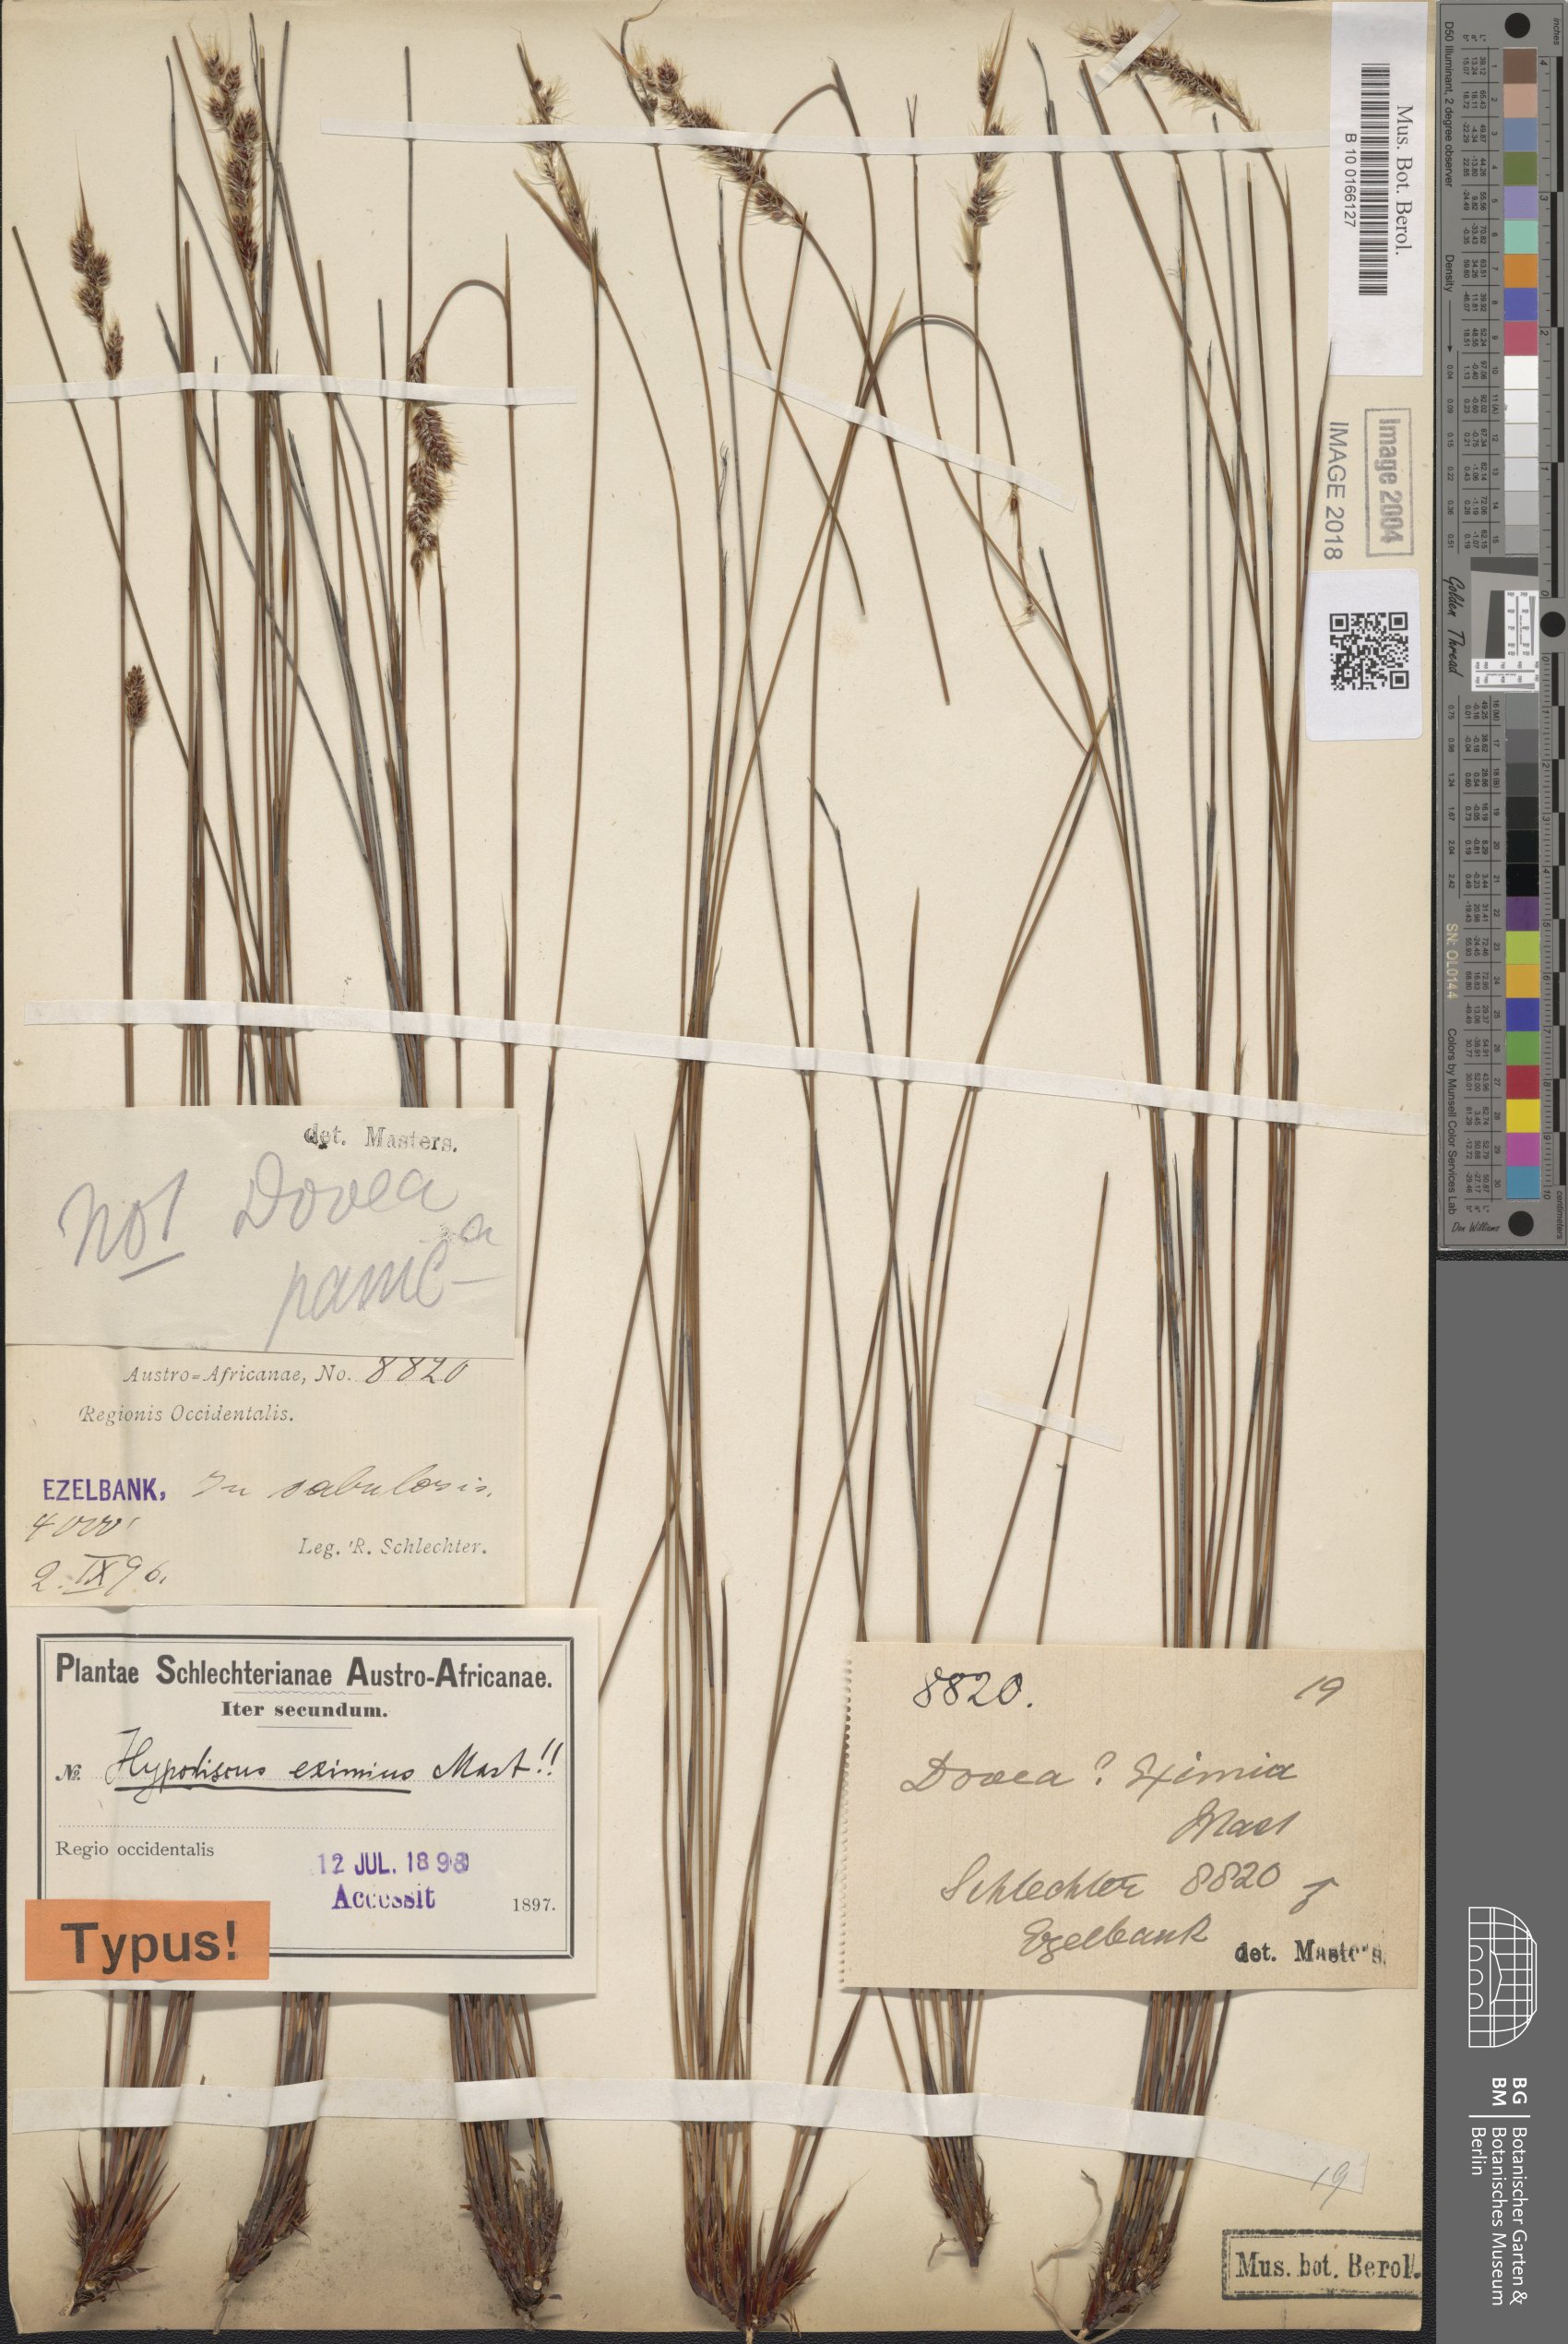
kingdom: Plantae
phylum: Tracheophyta
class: Liliopsida
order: Poales
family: Restionaceae
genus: Hypodiscus
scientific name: Hypodiscus neesii
